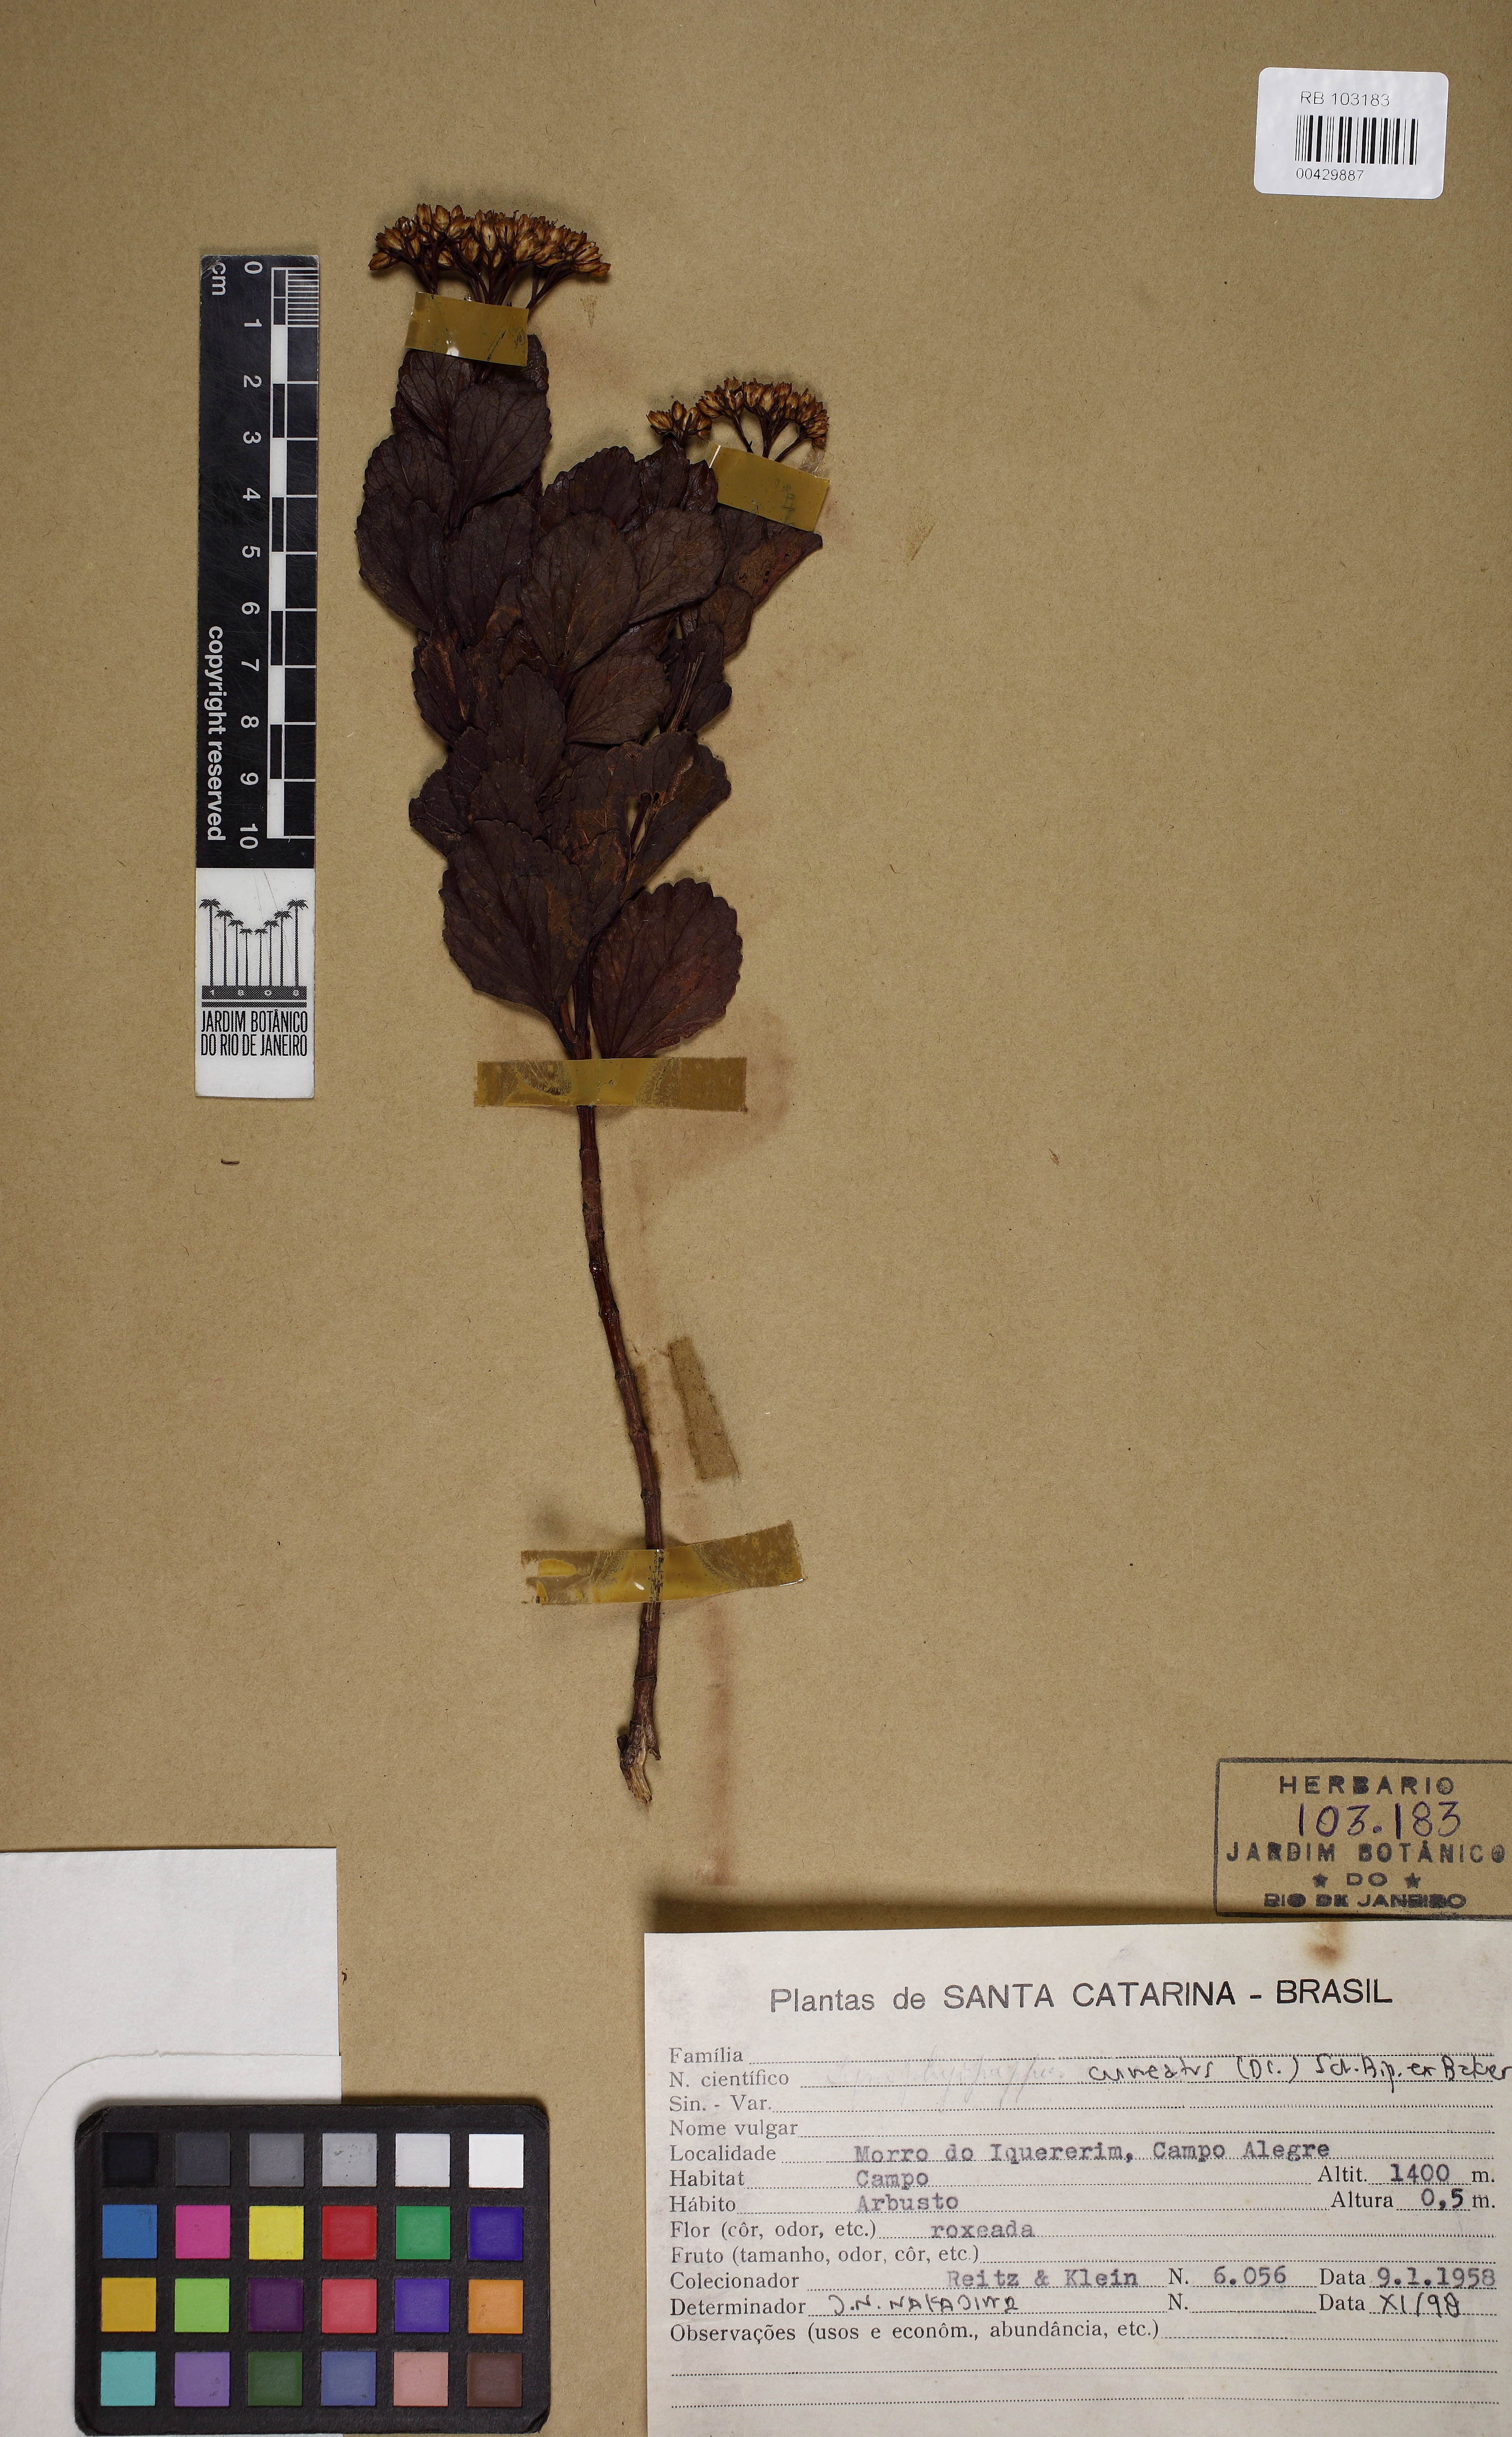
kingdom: Plantae
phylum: Tracheophyta
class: Magnoliopsida
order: Asterales
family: Asteraceae
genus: Symphyopappus
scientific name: Symphyopappus cuneatus
